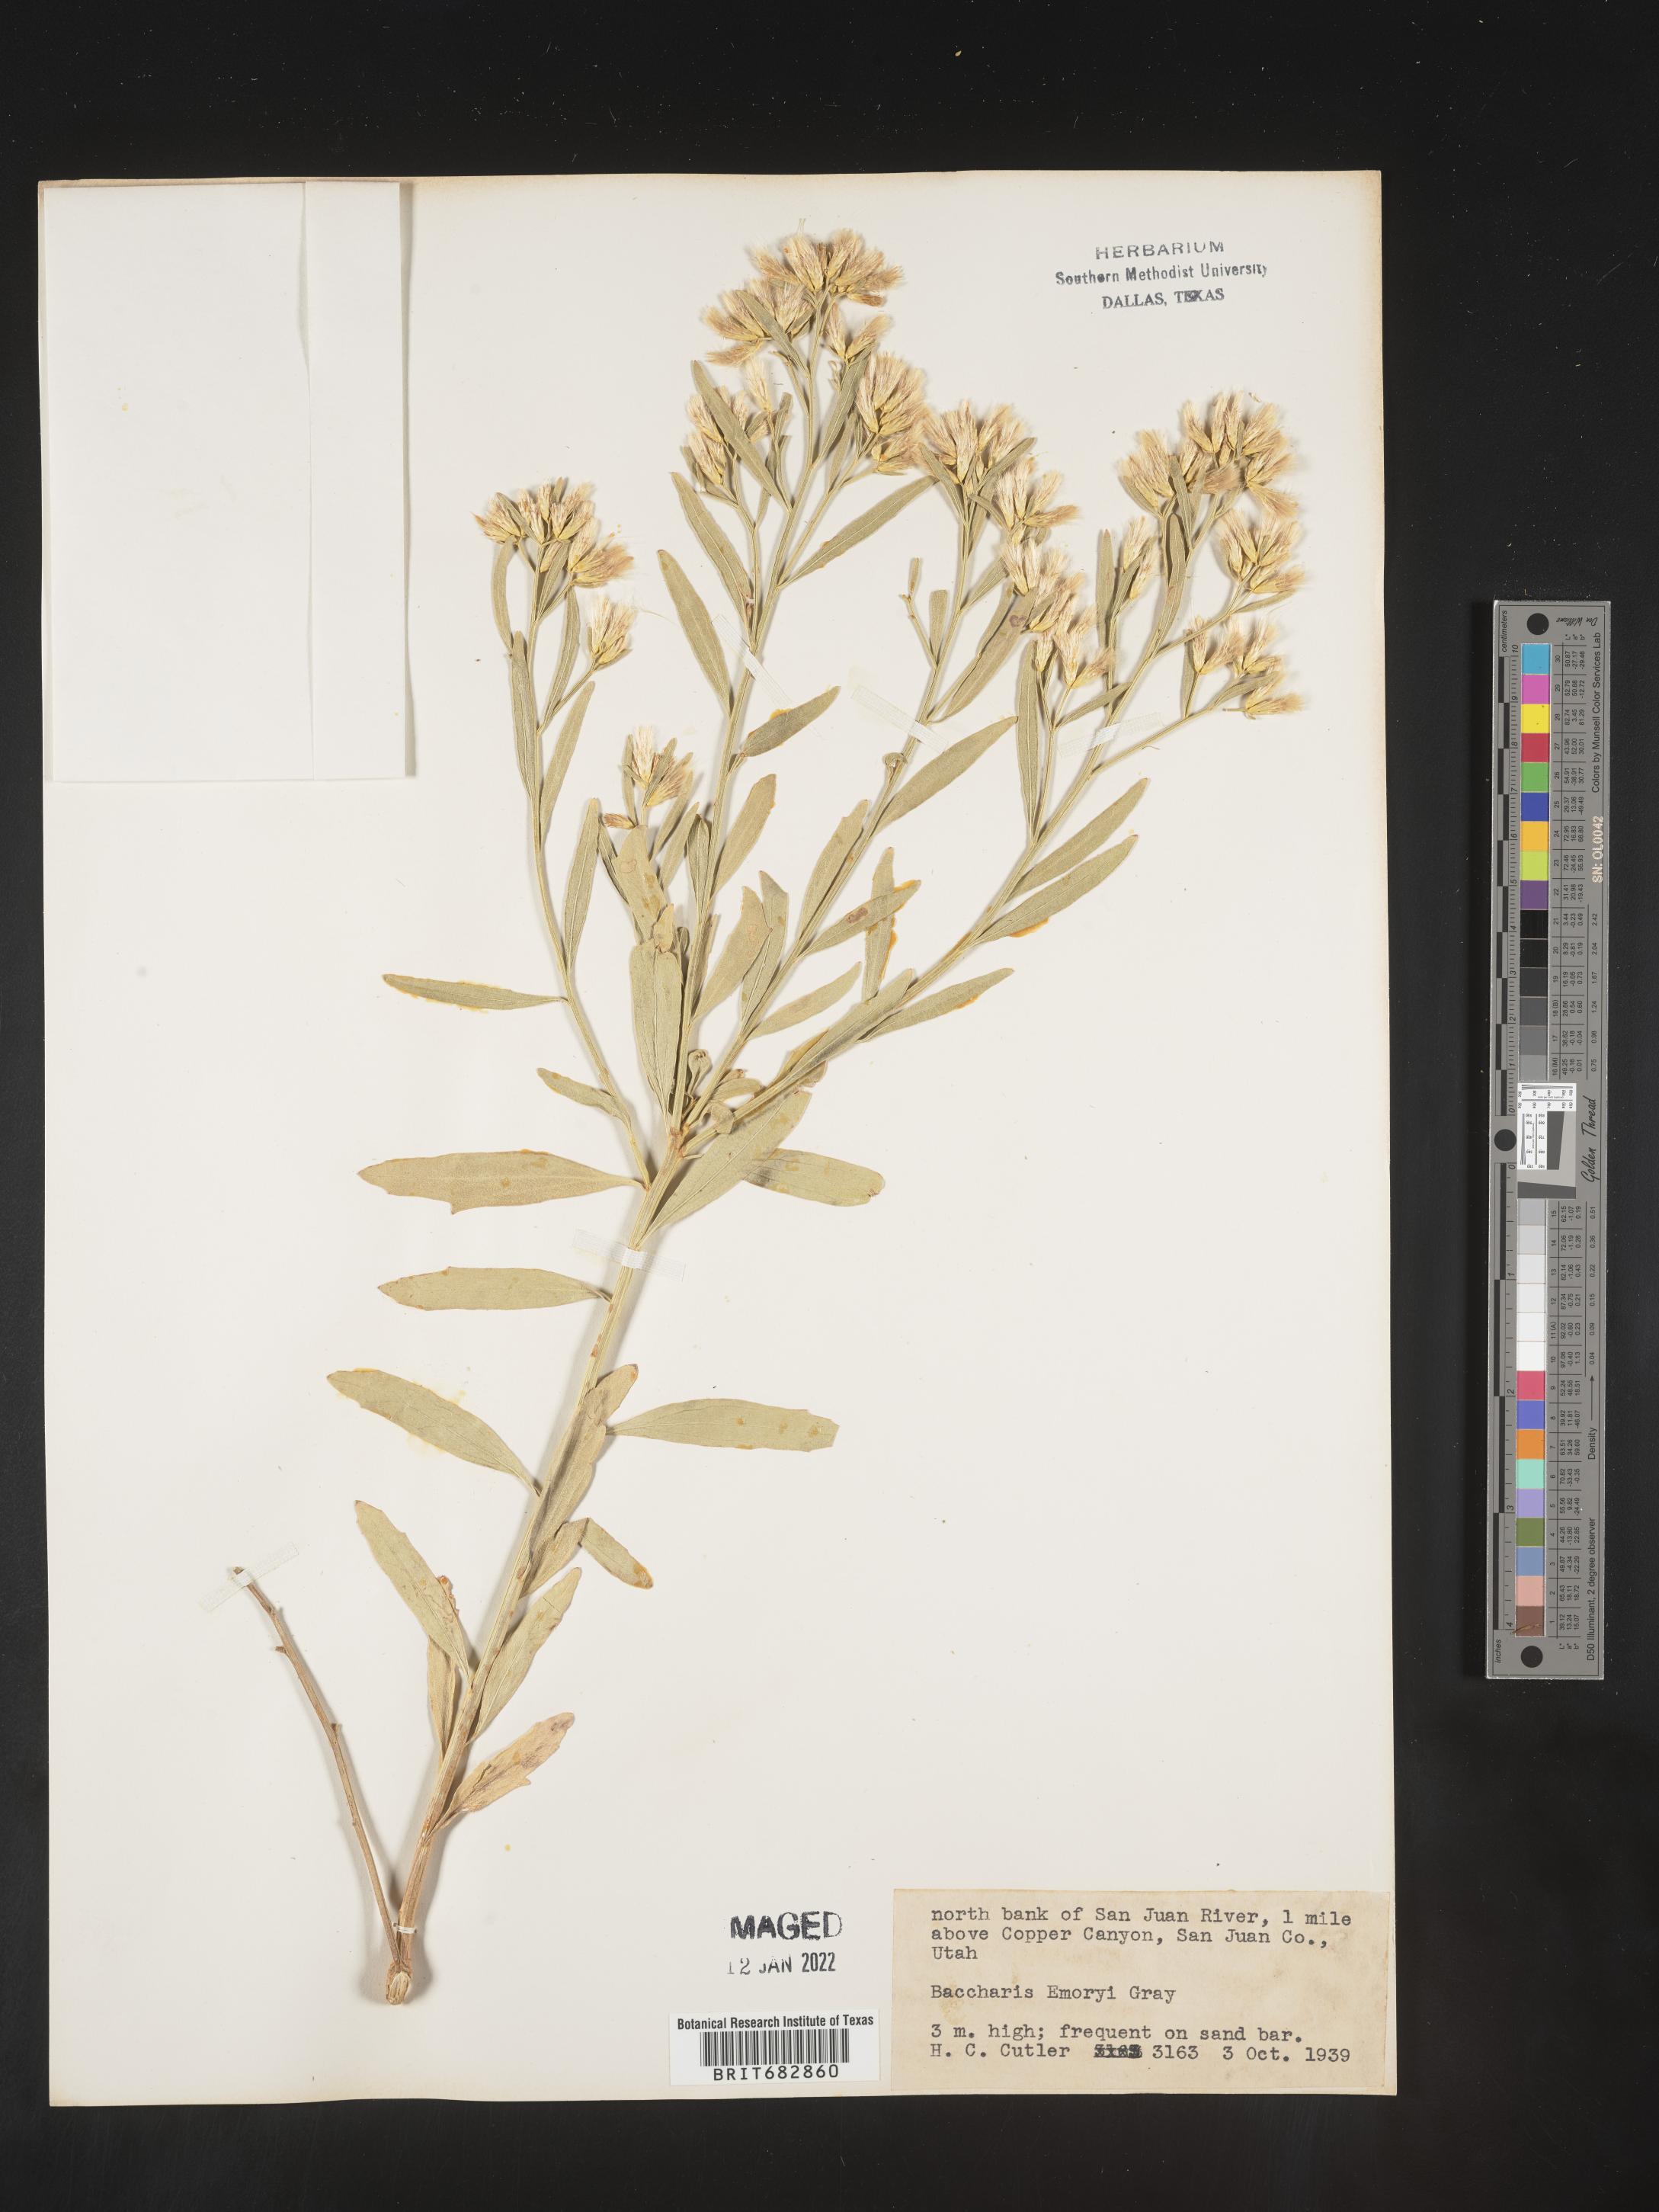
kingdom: Plantae
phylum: Tracheophyta
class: Magnoliopsida
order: Asterales
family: Asteraceae
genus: Baccharis
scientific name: Baccharis salicina
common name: Willow baccharis
